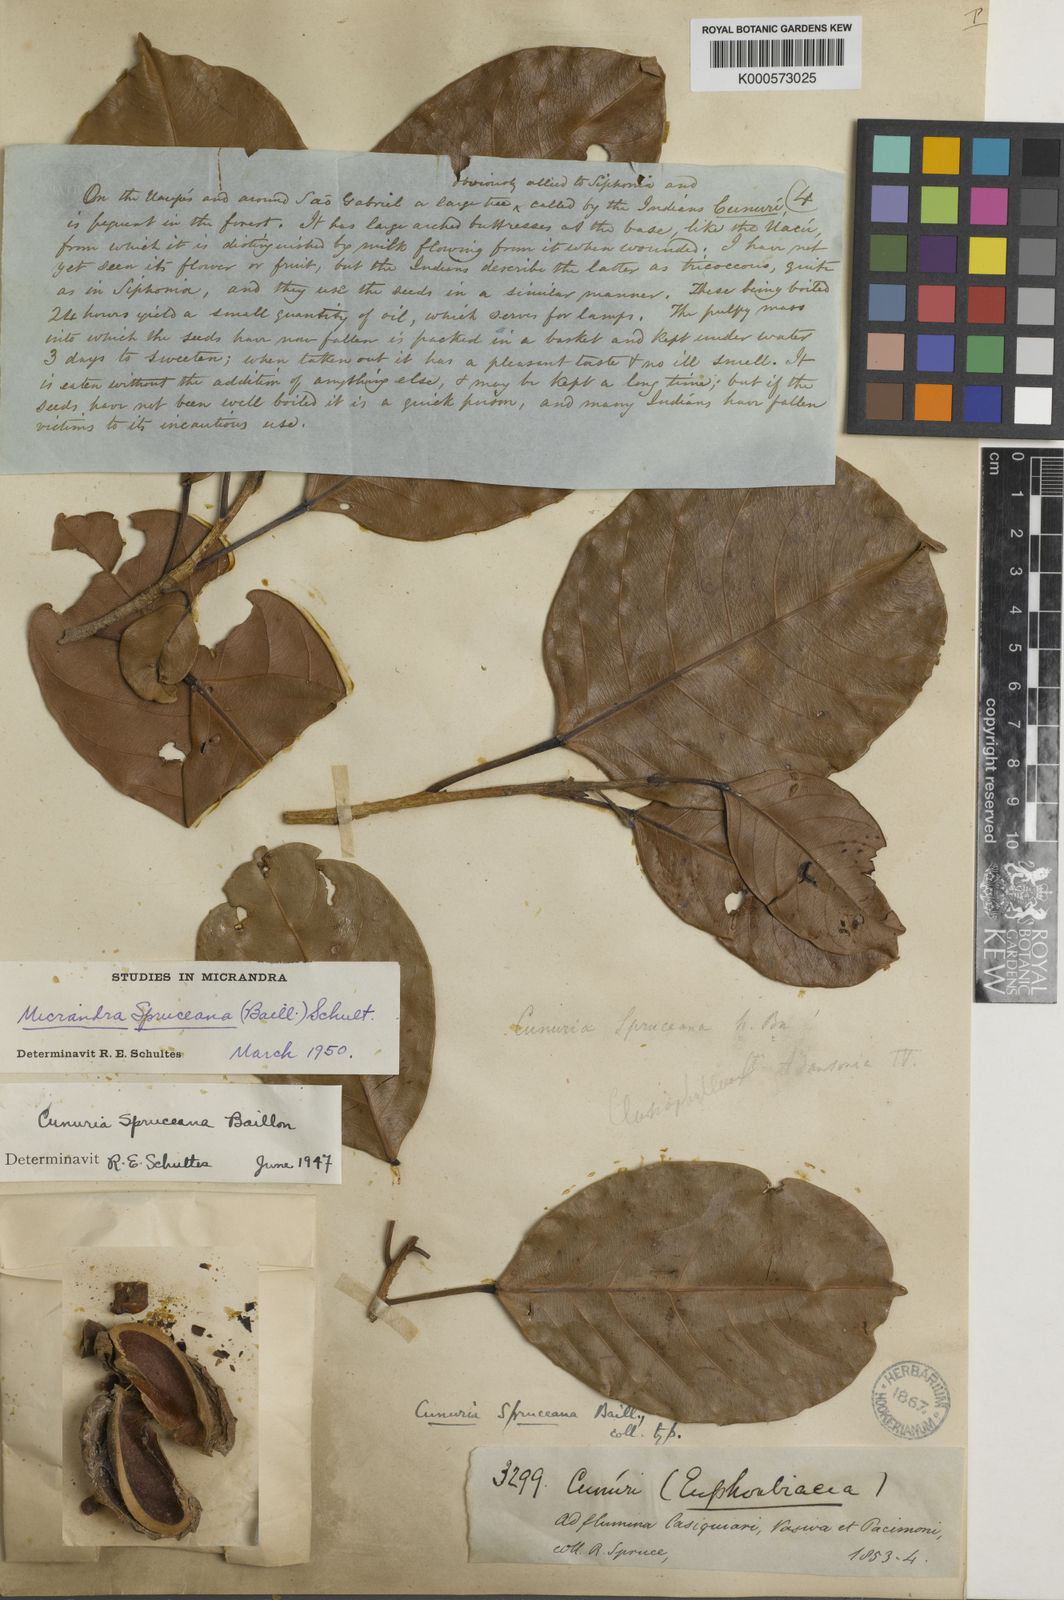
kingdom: Plantae
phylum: Tracheophyta
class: Magnoliopsida
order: Malpighiales
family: Euphorbiaceae
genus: Micrandra
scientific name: Micrandra spruceana
